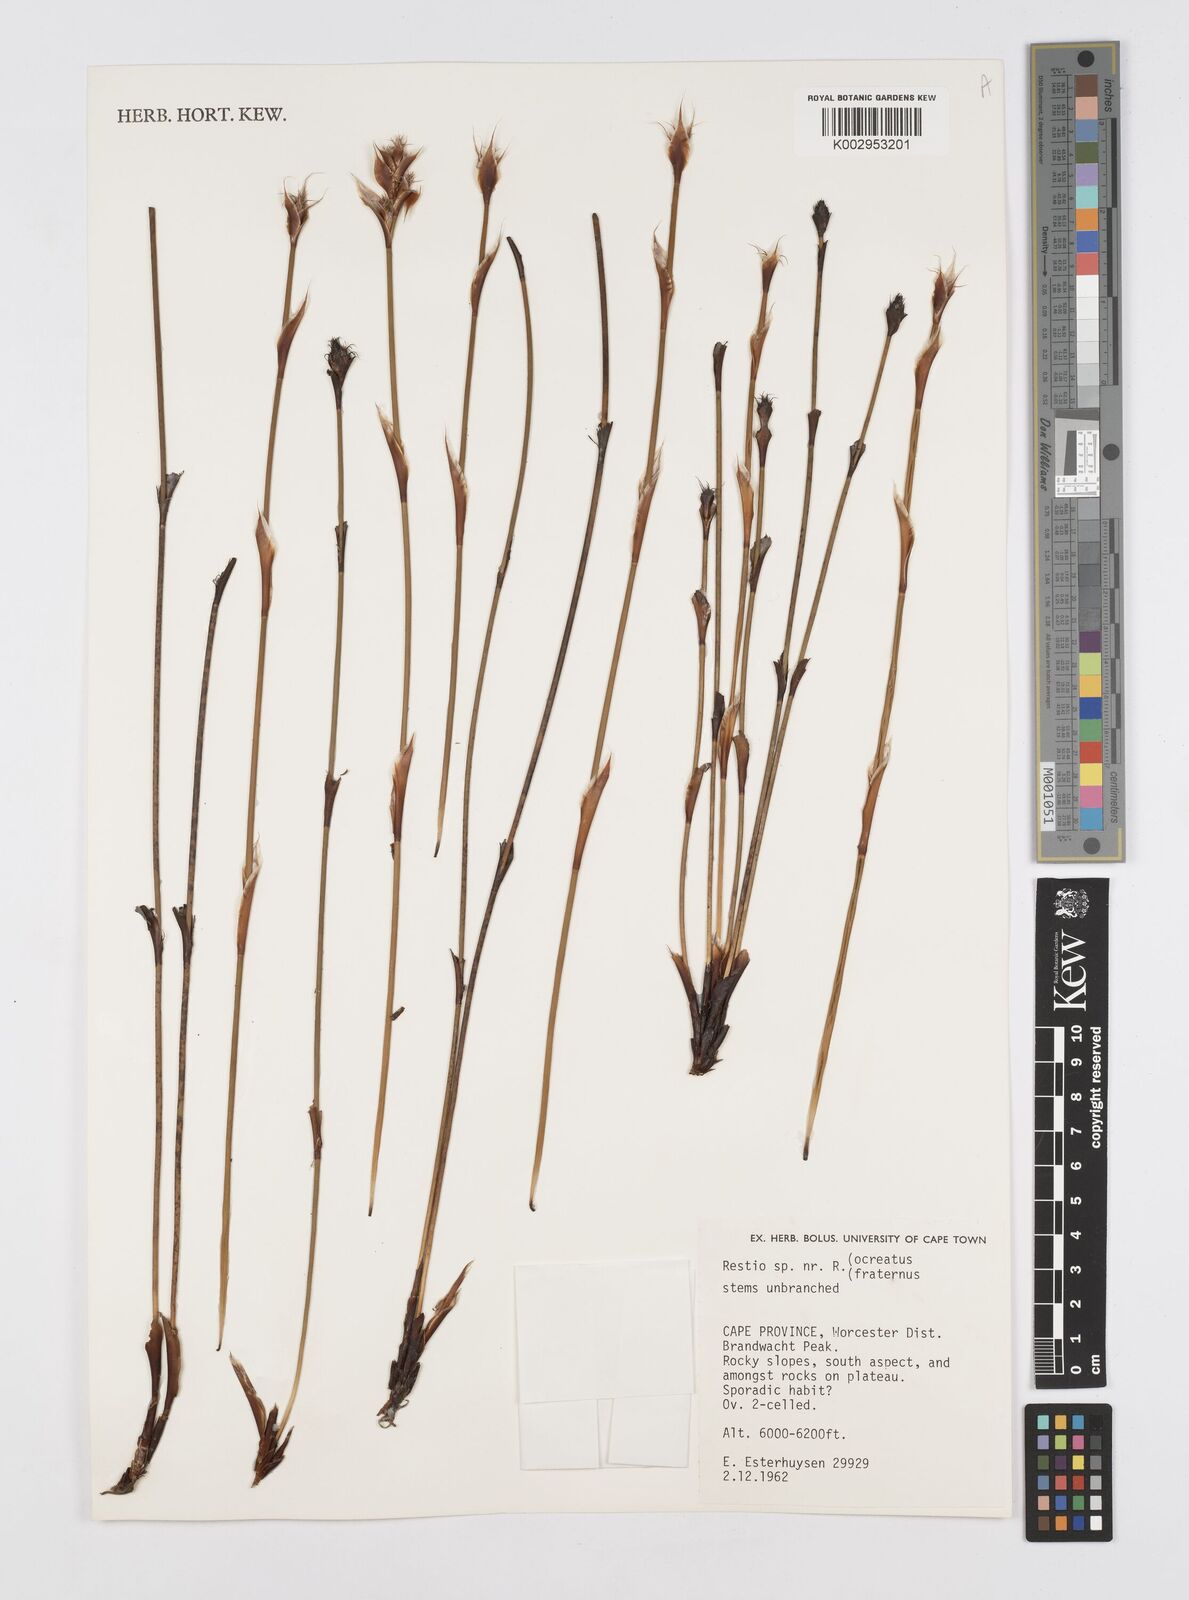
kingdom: Plantae
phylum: Tracheophyta
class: Liliopsida
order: Poales
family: Restionaceae
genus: Restio
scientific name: Restio fraternus
